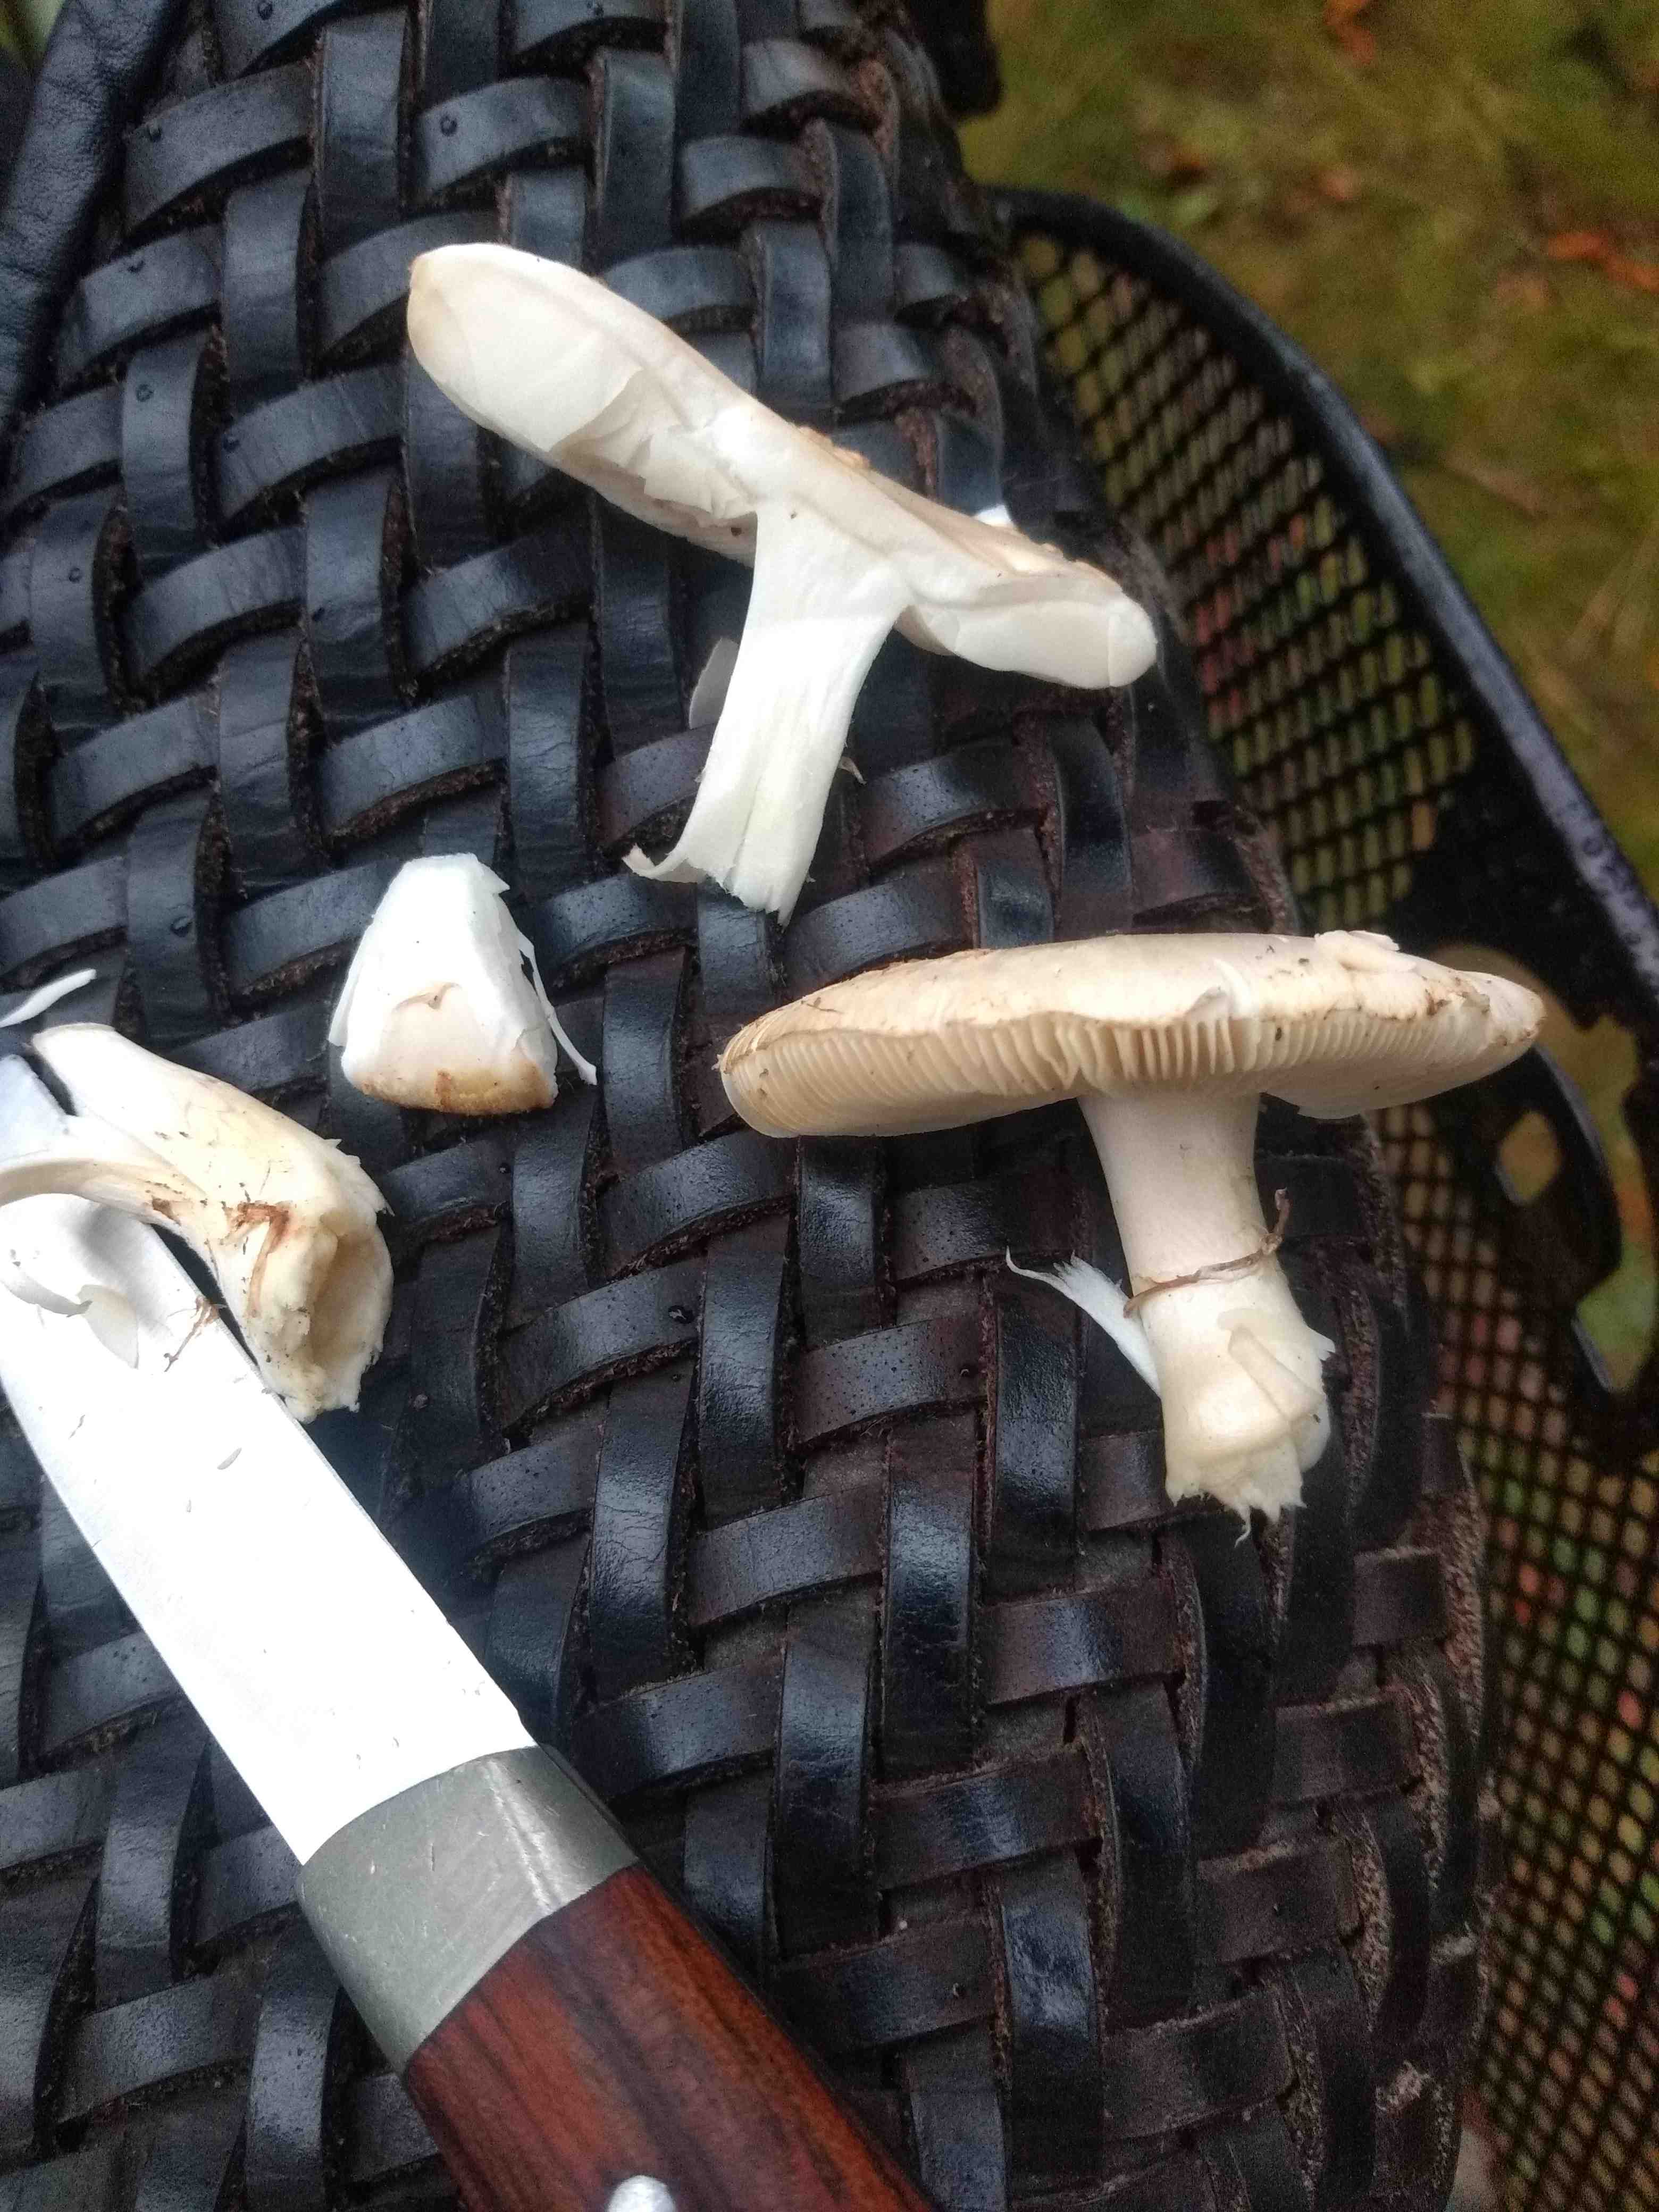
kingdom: Fungi
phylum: Basidiomycota
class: Agaricomycetes
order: Agaricales
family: Amanitaceae
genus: Amanita
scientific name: Amanita citrina
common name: kugleknoldet fluesvamp
